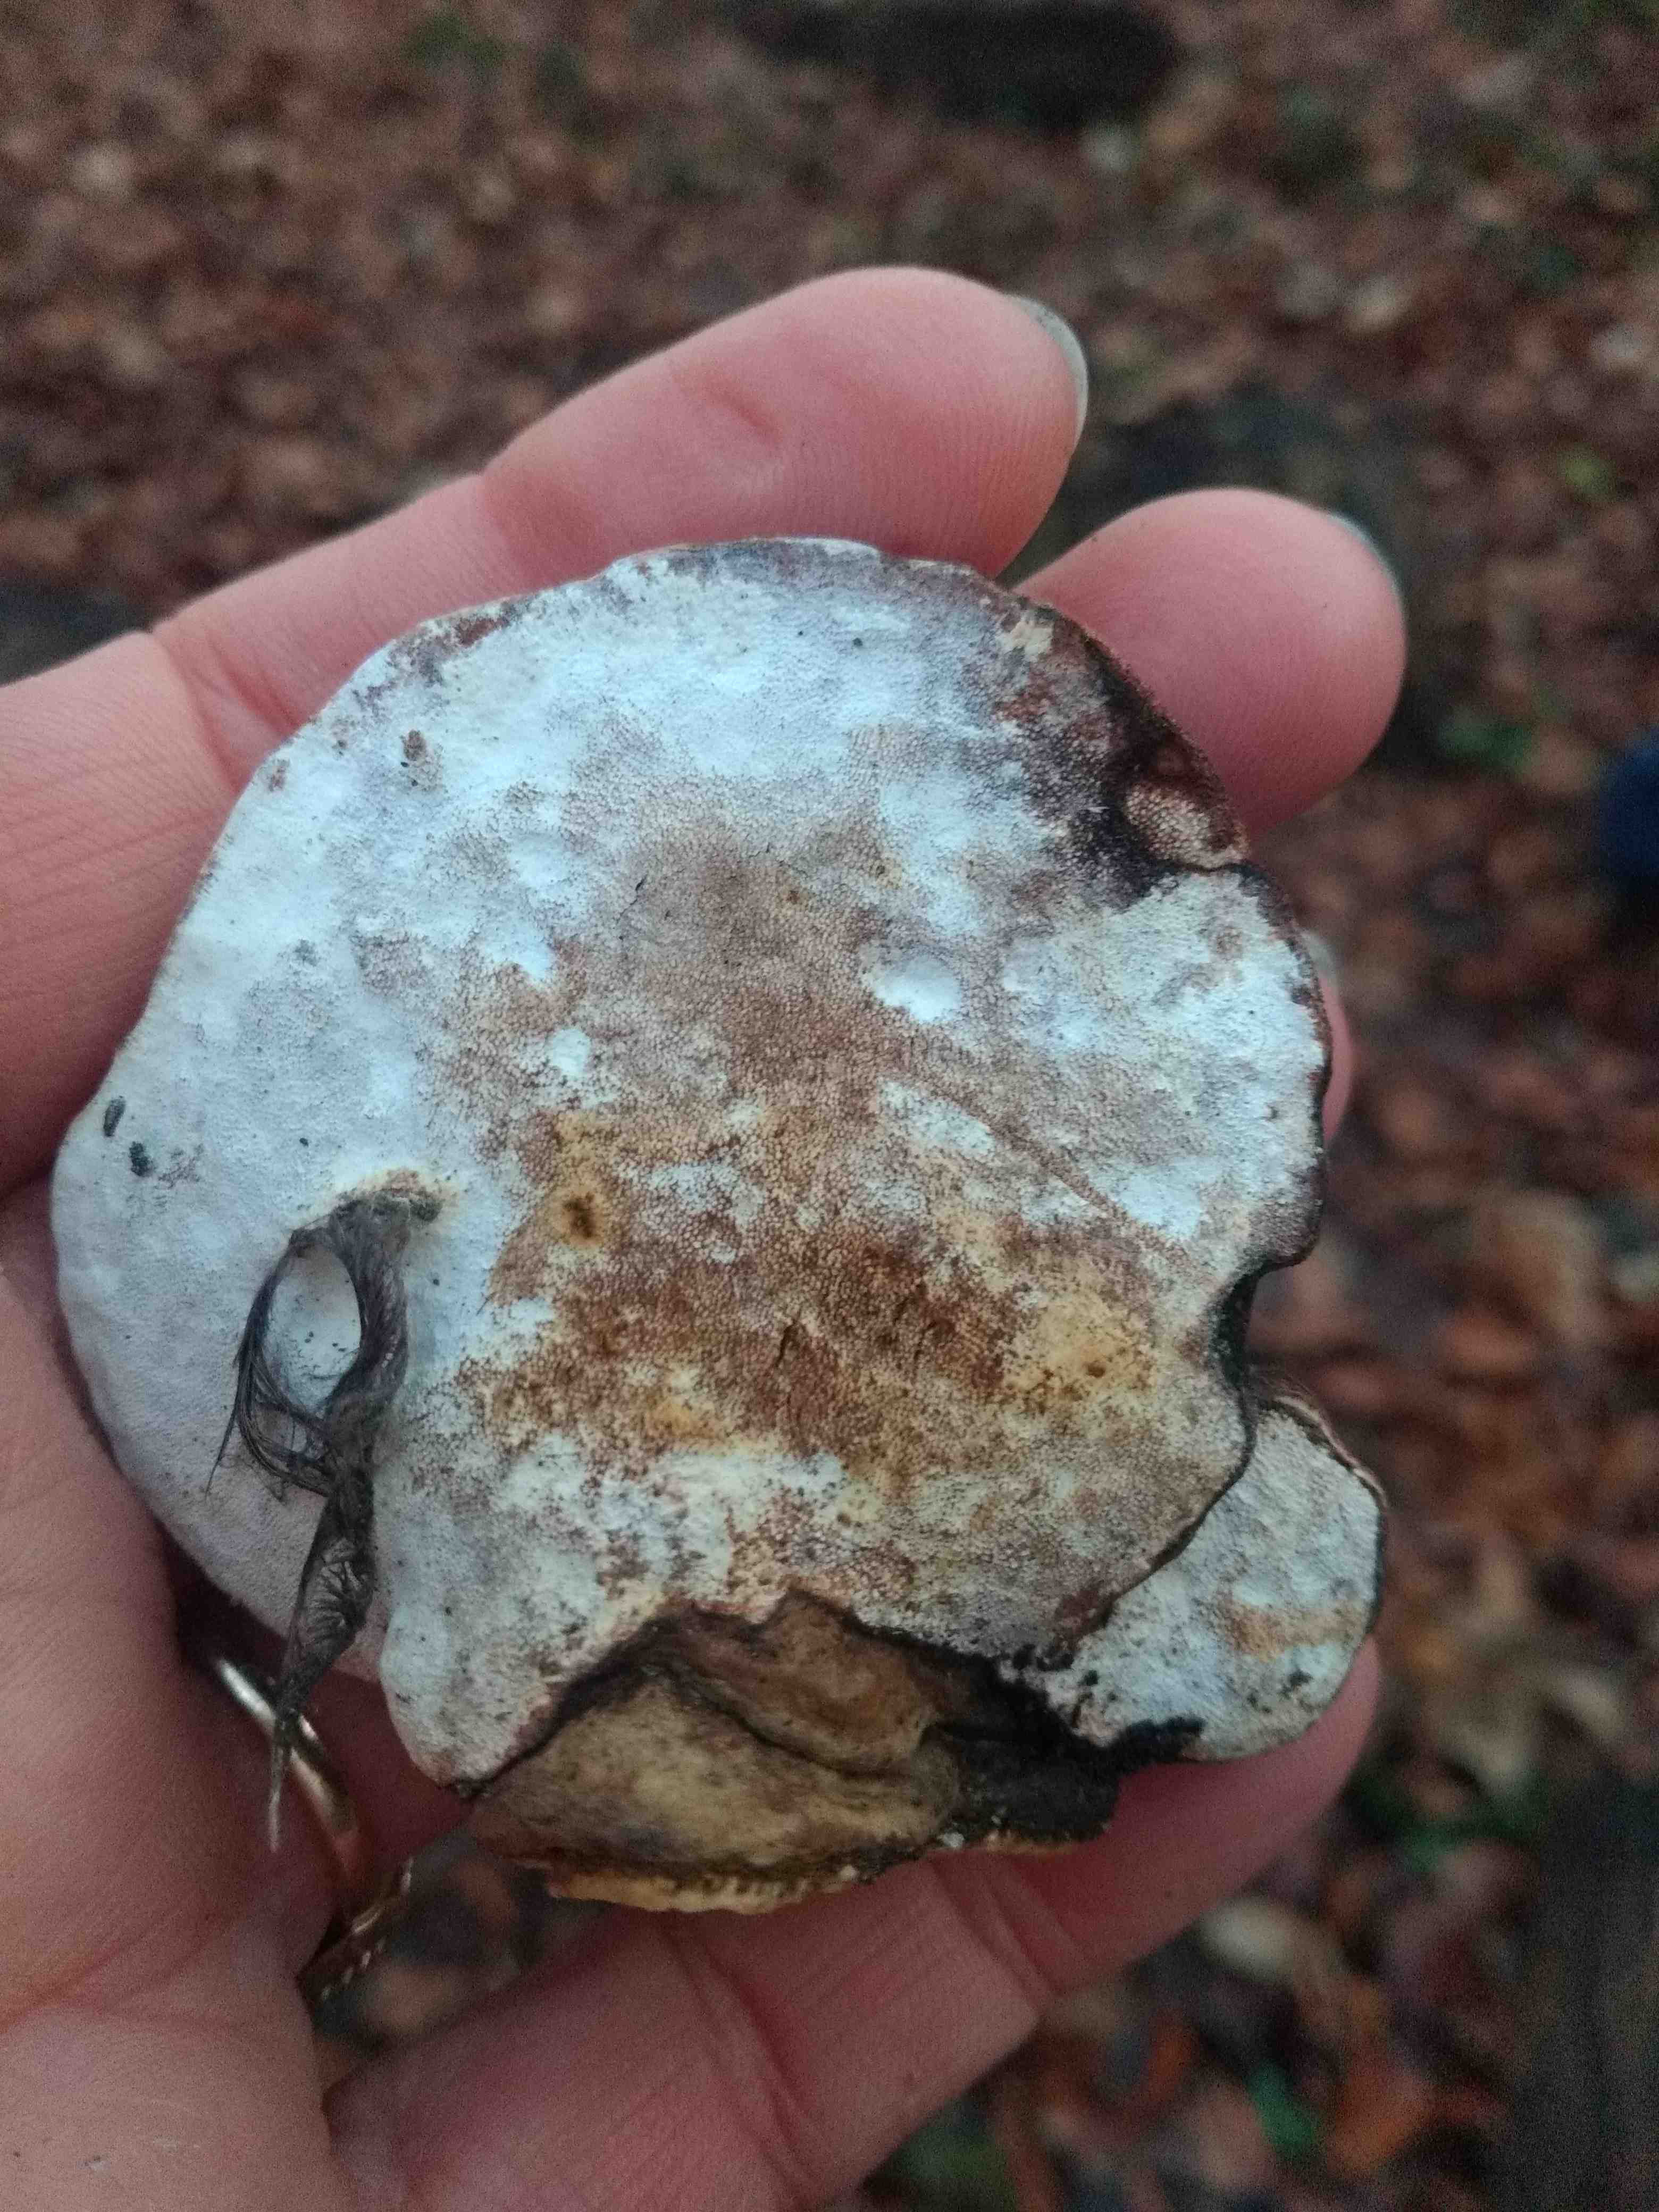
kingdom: Fungi
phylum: Basidiomycota
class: Agaricomycetes
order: Polyporales
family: Polyporaceae
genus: Ganoderma
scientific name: Ganoderma applanatum
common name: flad lakporesvamp
